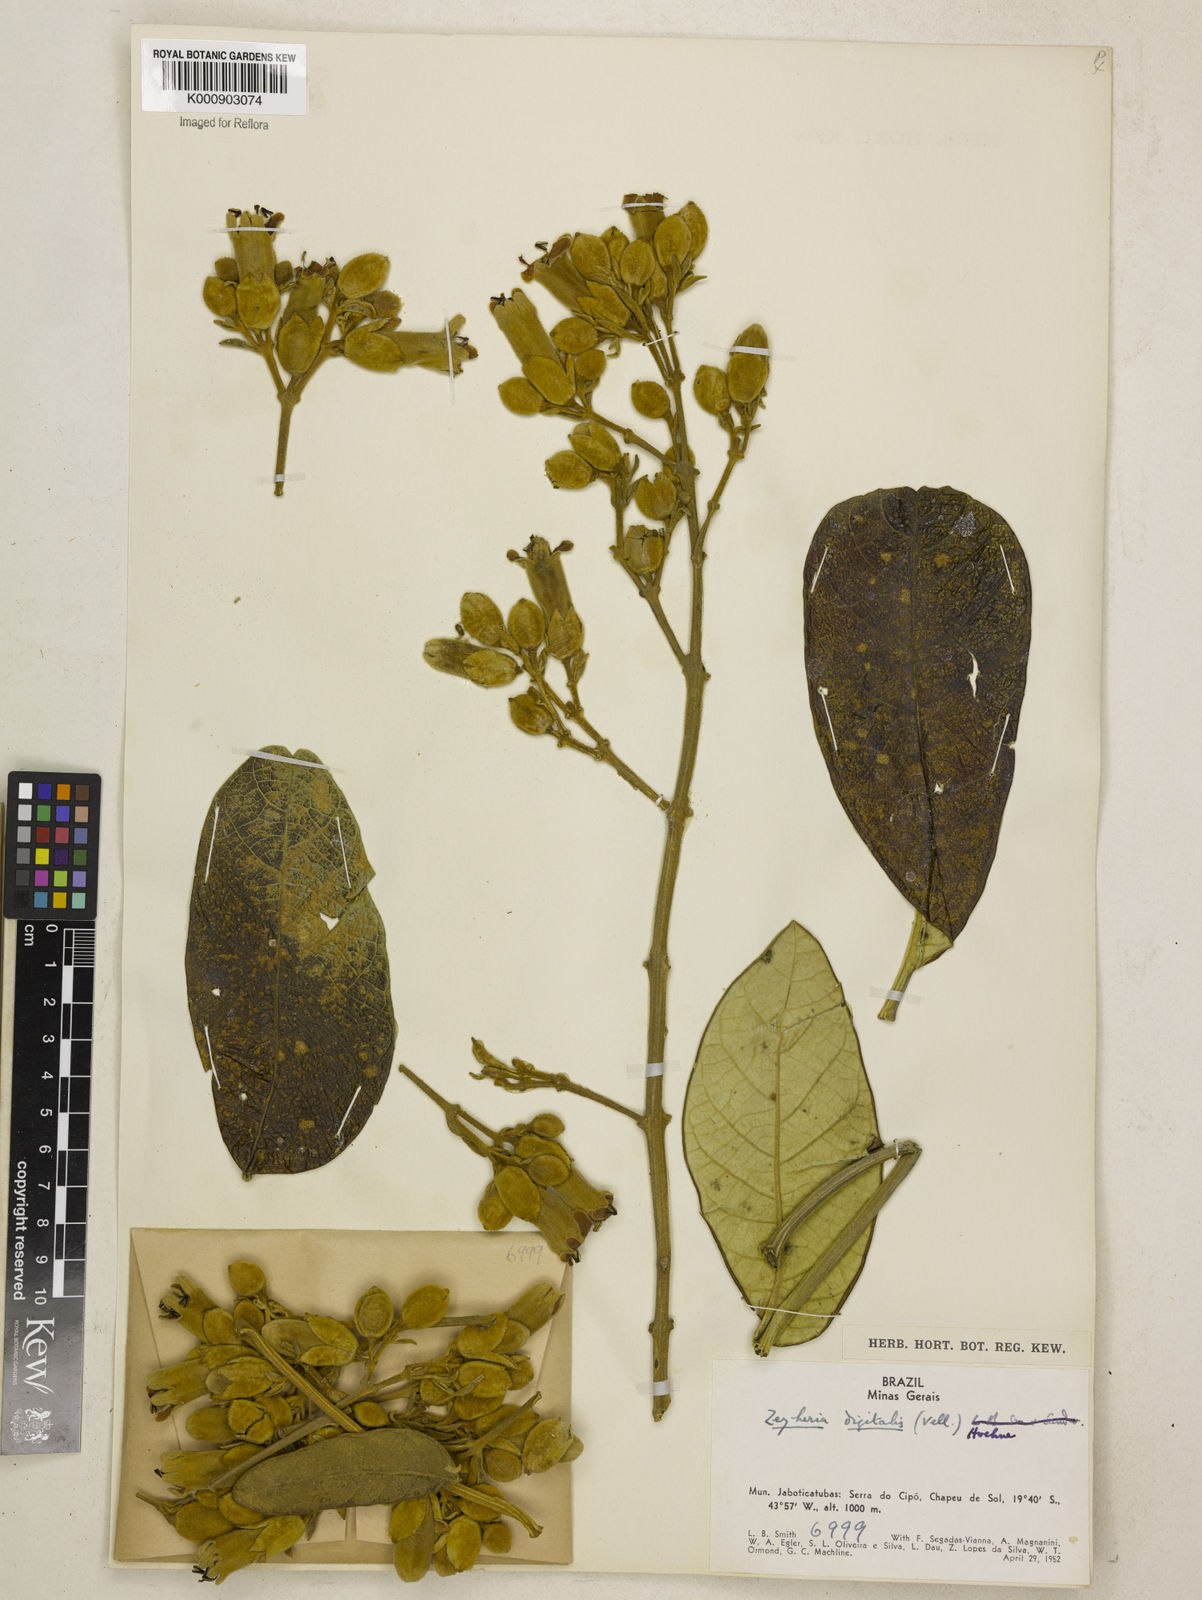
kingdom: Plantae
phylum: Tracheophyta
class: Magnoliopsida
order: Lamiales
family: Bignoniaceae
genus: Zeyheria
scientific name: Zeyheria
